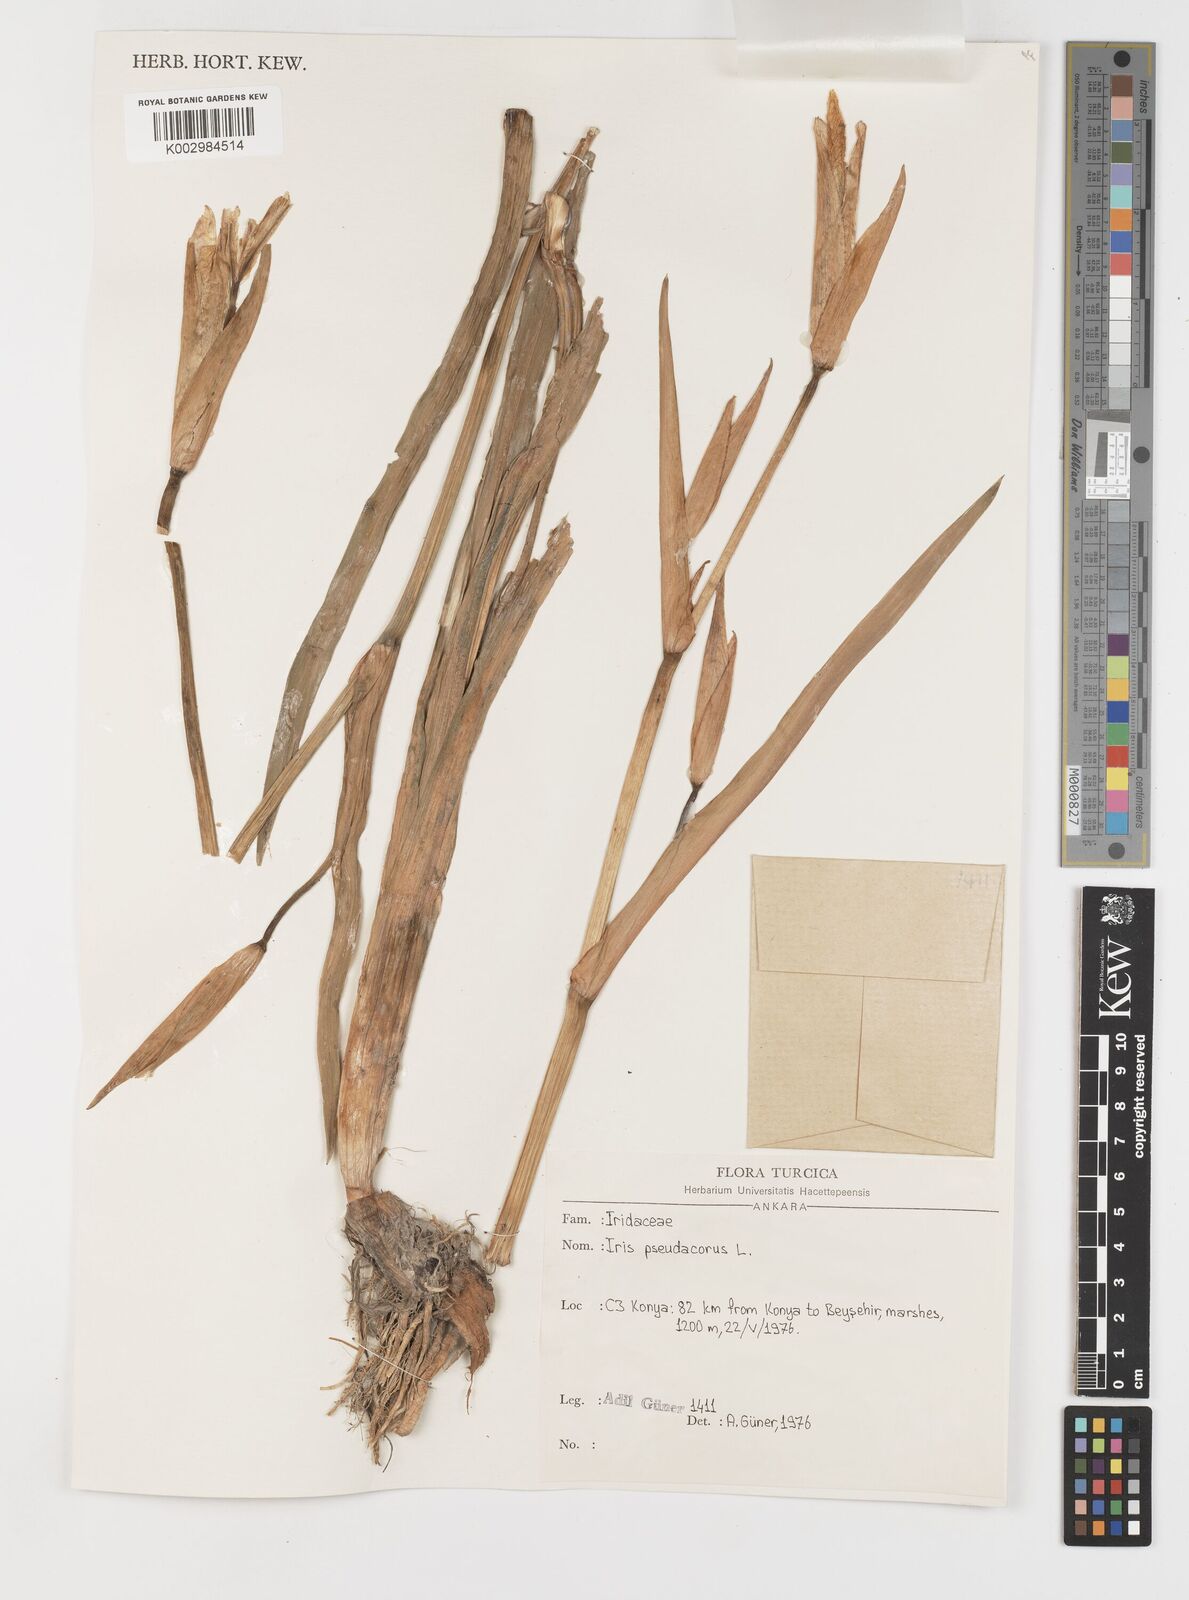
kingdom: Plantae
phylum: Tracheophyta
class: Liliopsida
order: Asparagales
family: Iridaceae
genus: Iris
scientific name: Iris pseudacorus
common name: Yellow flag
